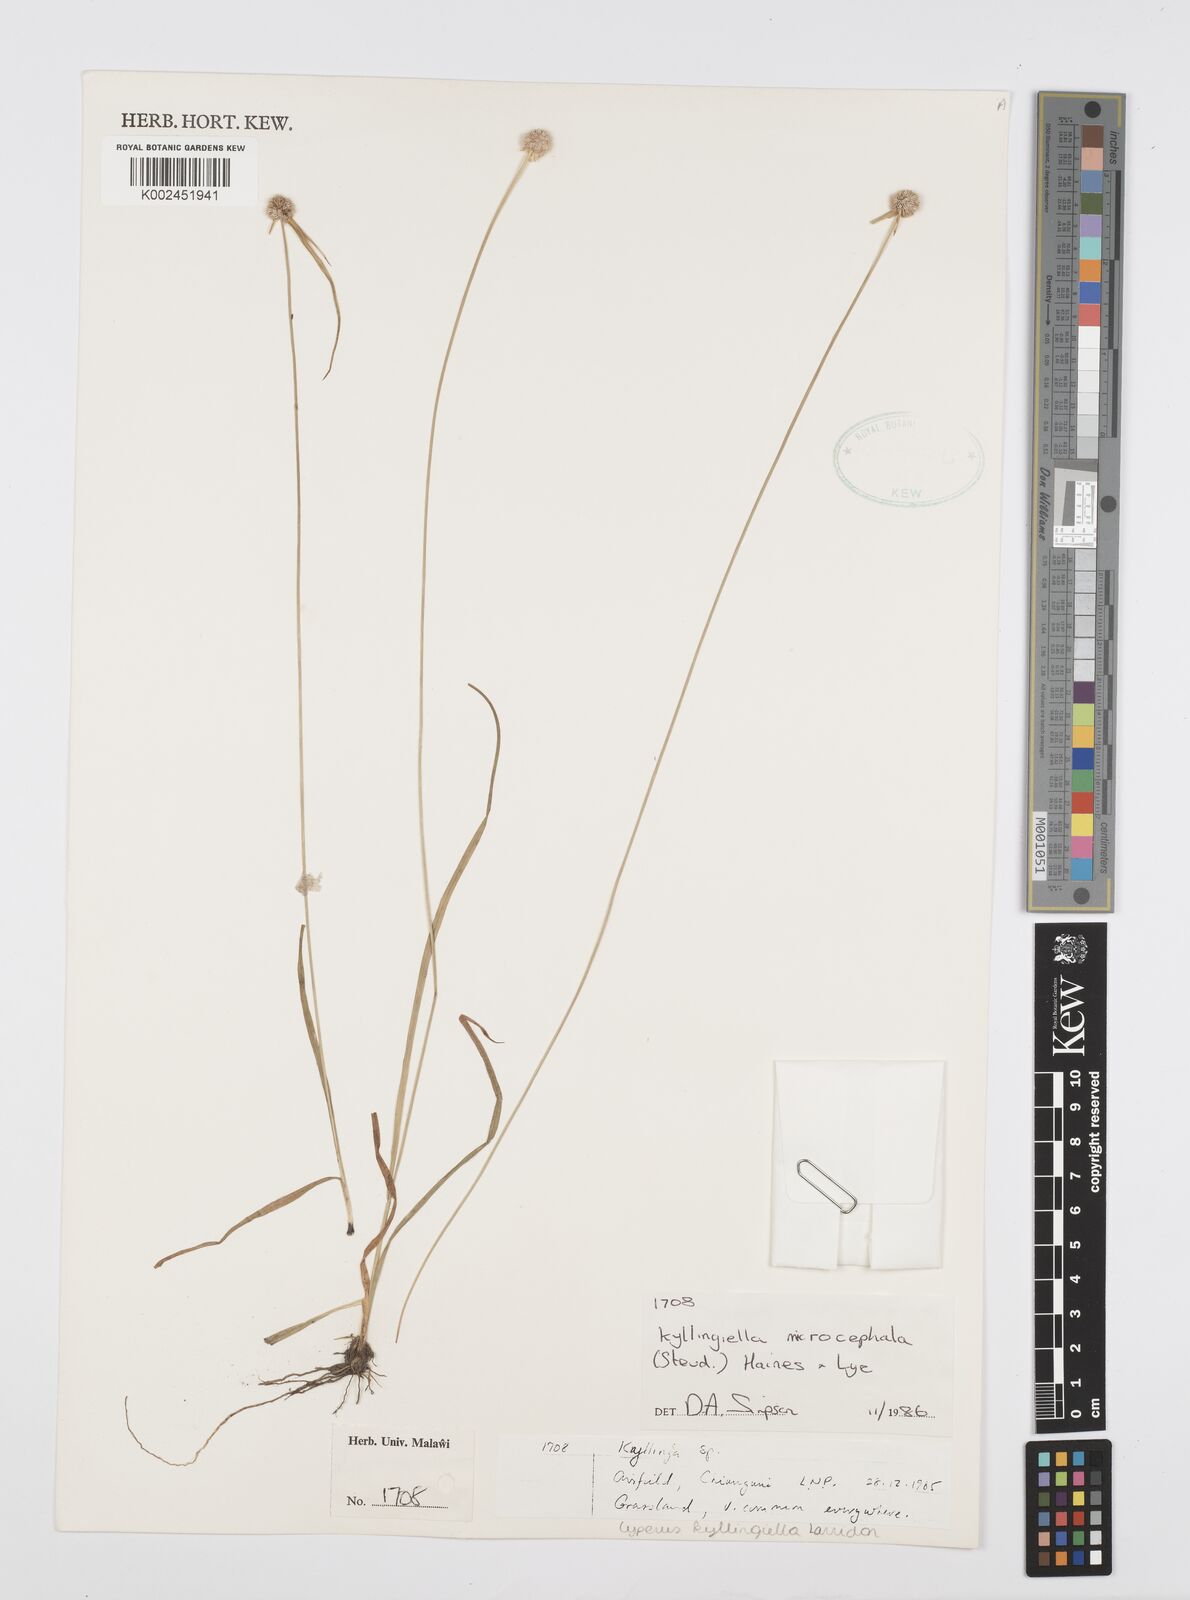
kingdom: Plantae
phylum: Tracheophyta
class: Liliopsida
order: Poales
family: Cyperaceae
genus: Cyperus
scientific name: Cyperus microcephalus
